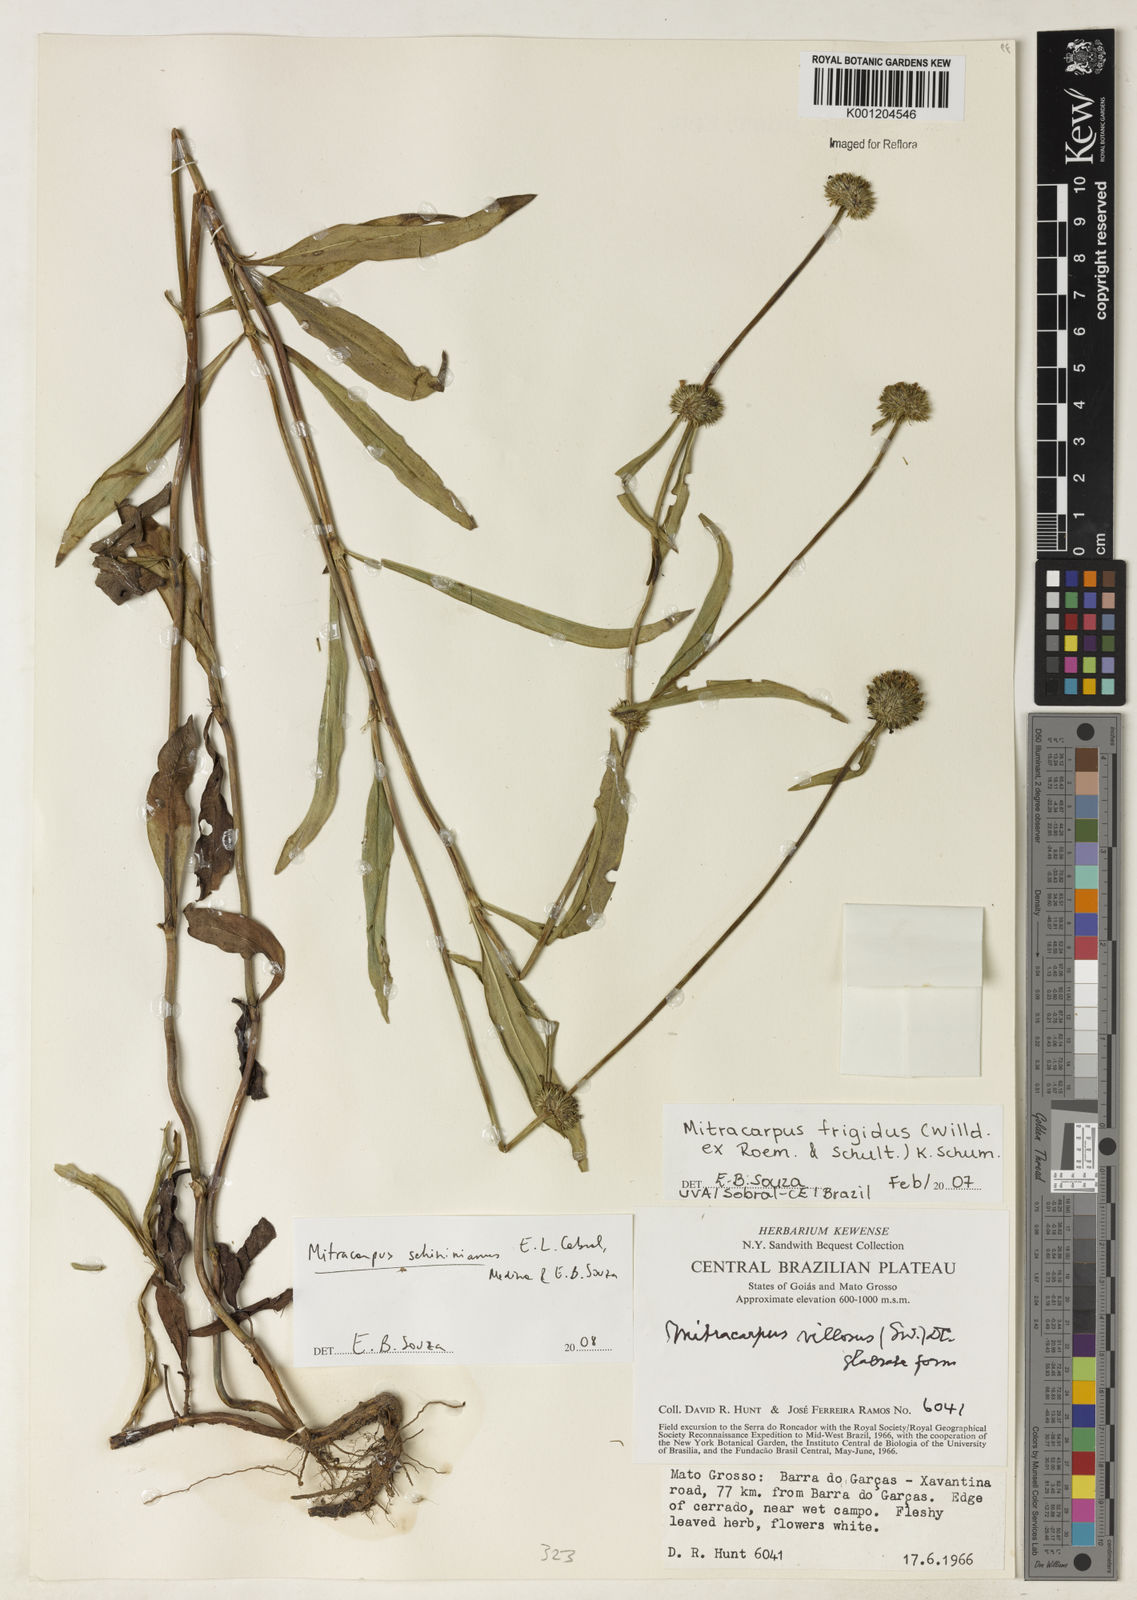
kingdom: Plantae
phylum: Tracheophyta
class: Magnoliopsida
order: Gentianales
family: Rubiaceae
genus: Mitracarpus
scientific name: Mitracarpus
